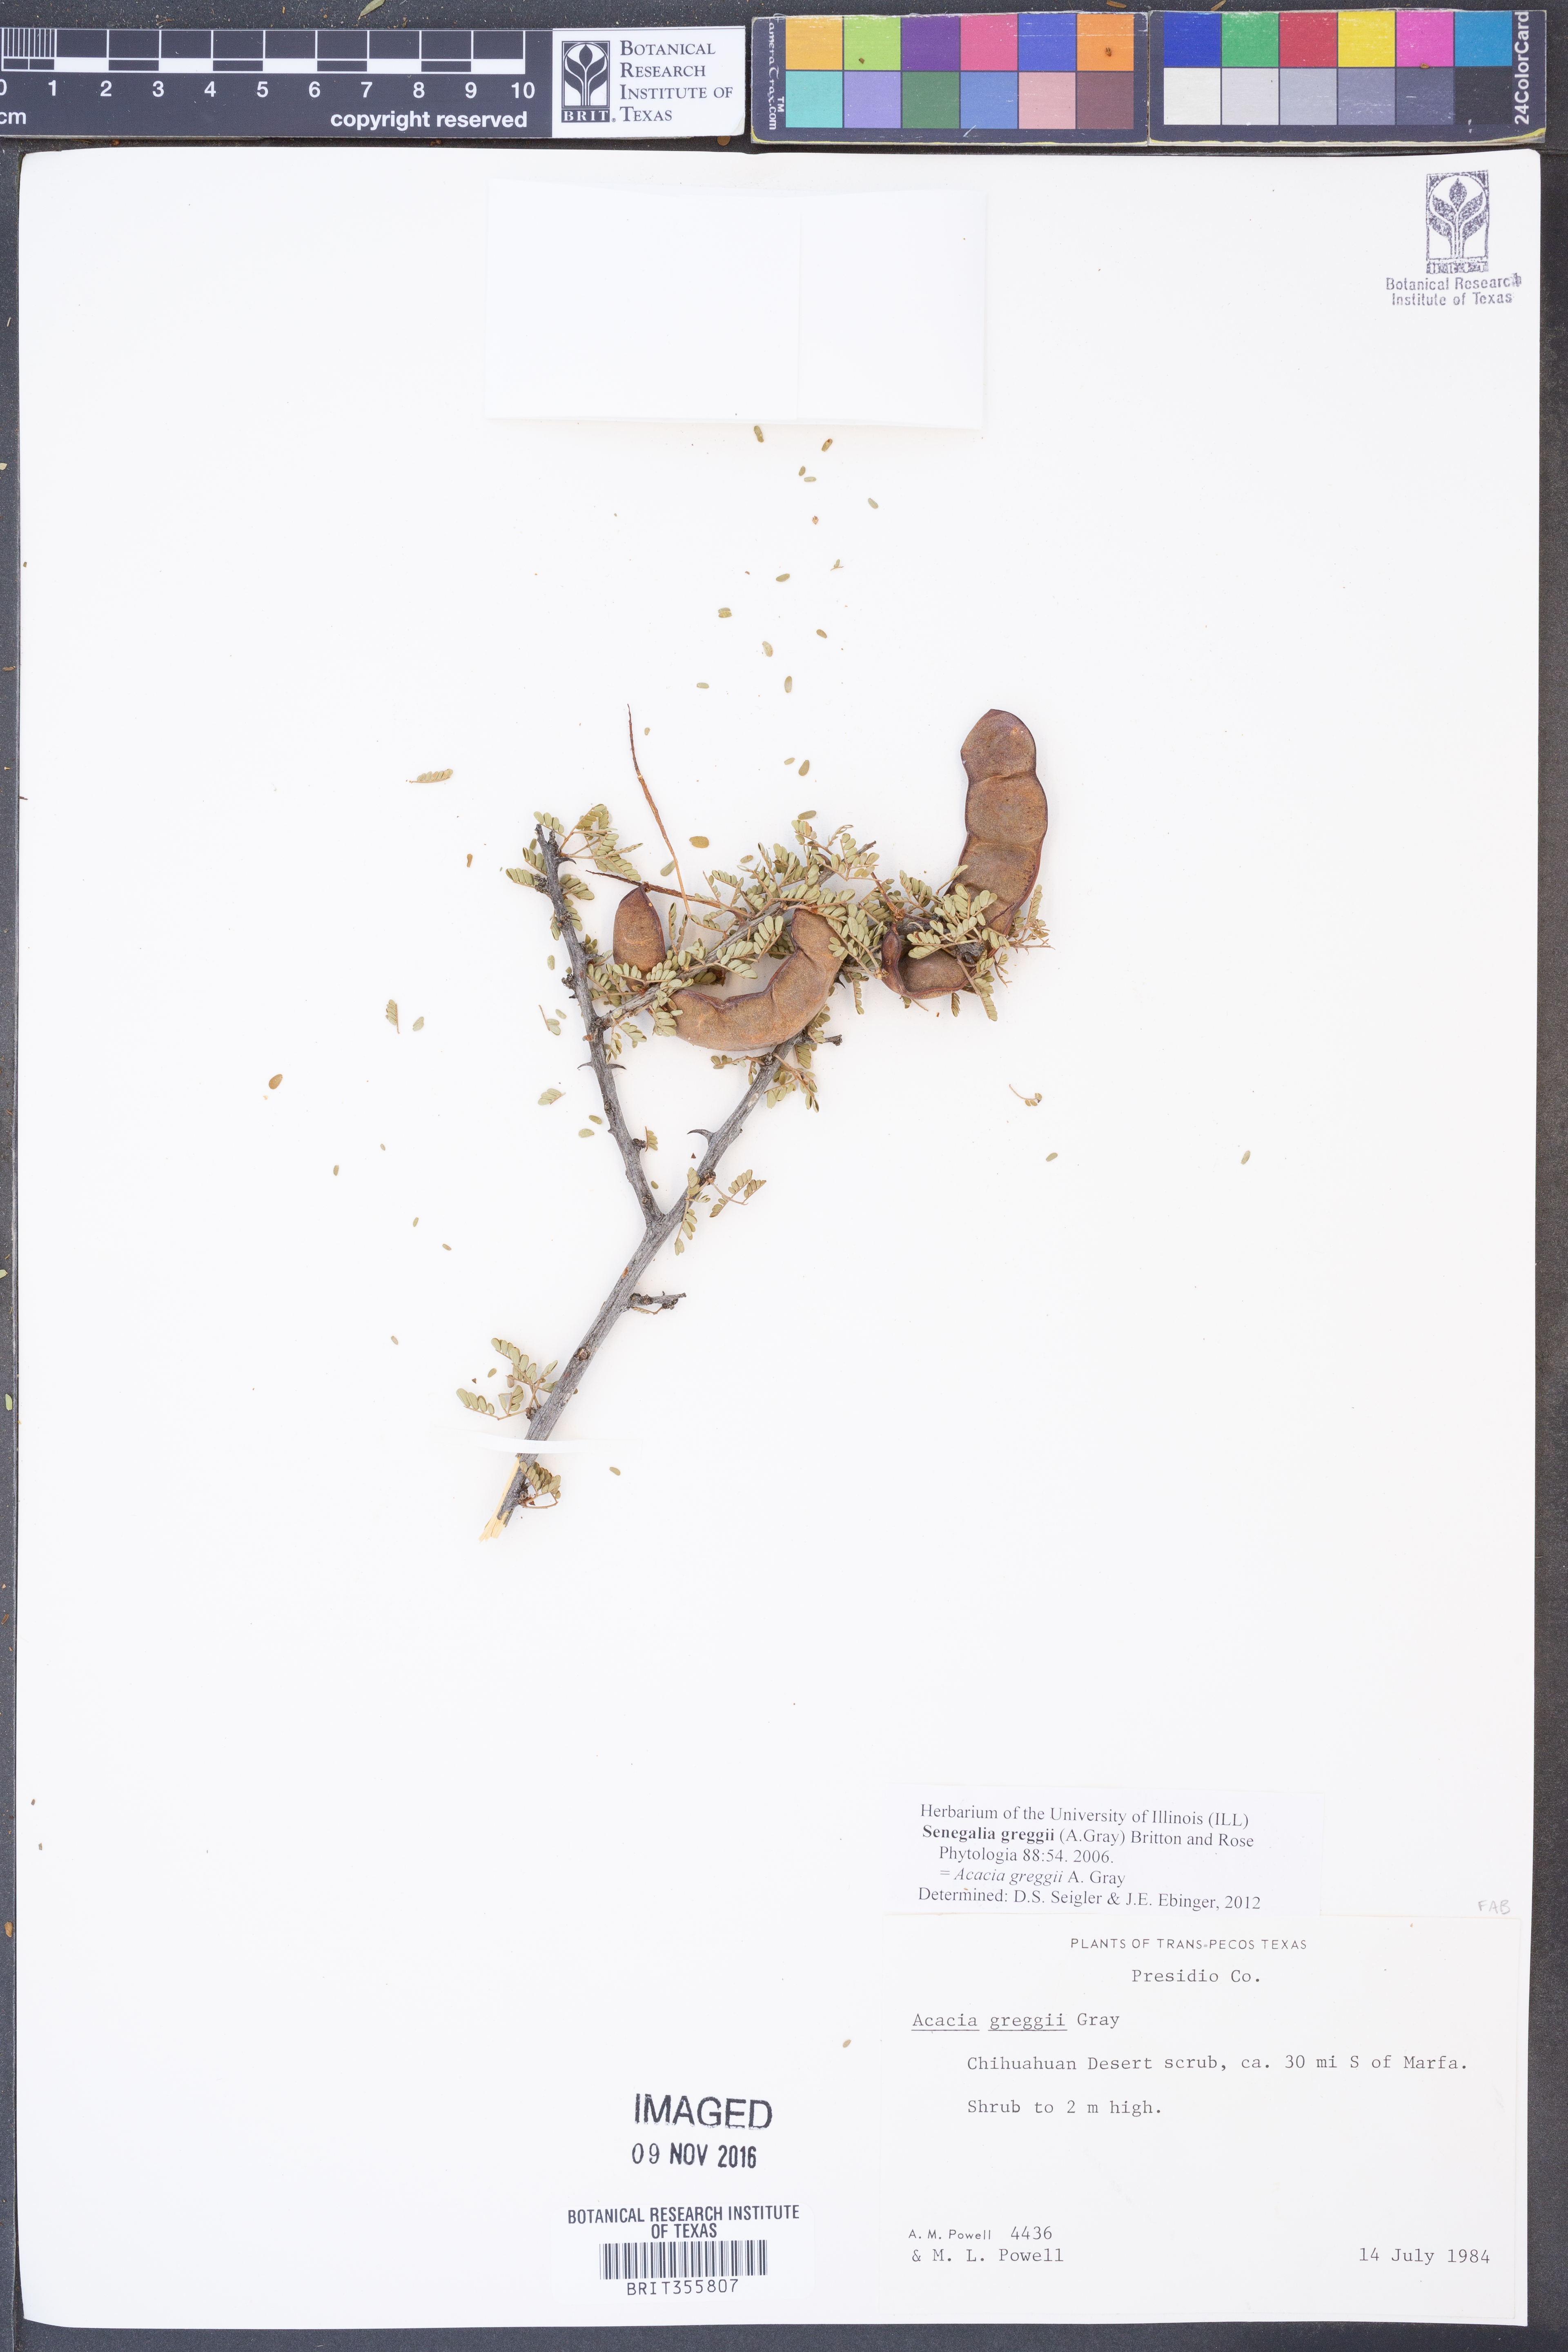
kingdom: Plantae
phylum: Tracheophyta
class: Magnoliopsida
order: Fabales
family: Fabaceae
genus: Senegalia
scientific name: Senegalia greggii
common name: Texas-mimosa
